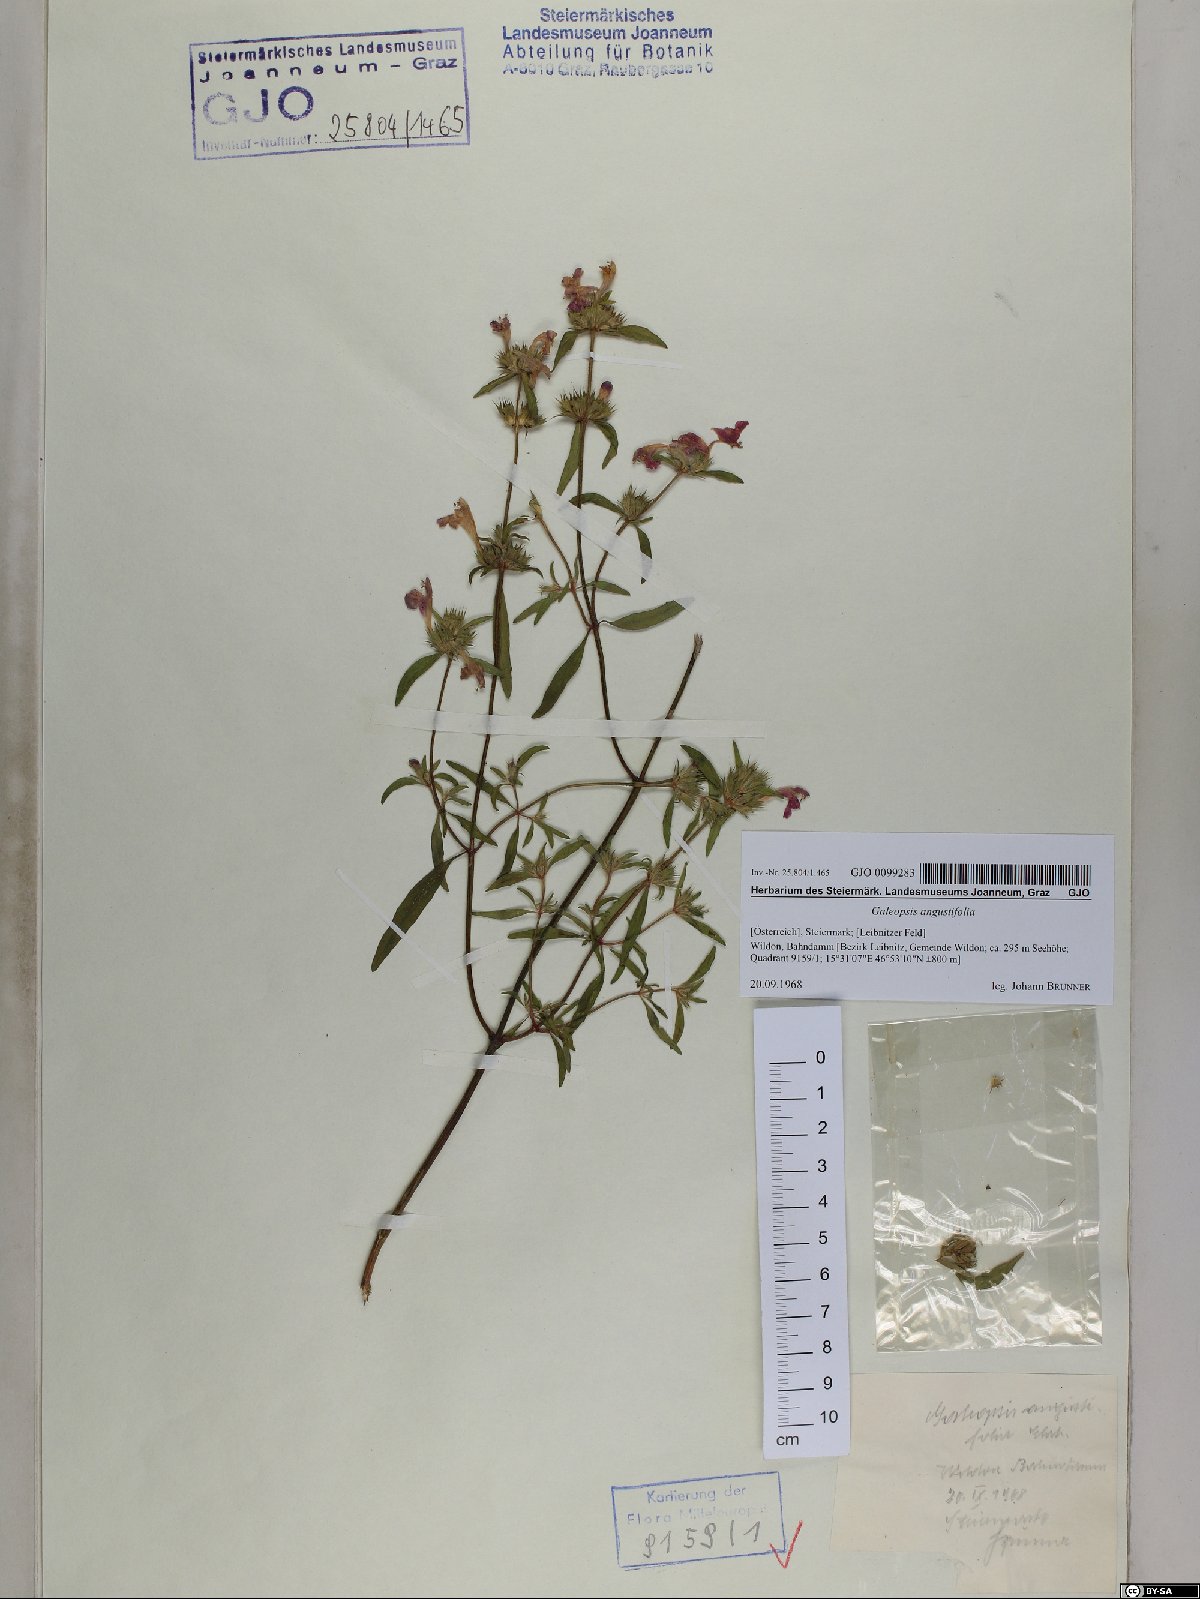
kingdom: Plantae
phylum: Tracheophyta
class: Magnoliopsida
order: Lamiales
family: Lamiaceae
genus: Galeopsis
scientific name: Galeopsis angustifolia
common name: Red hemp-nettle
